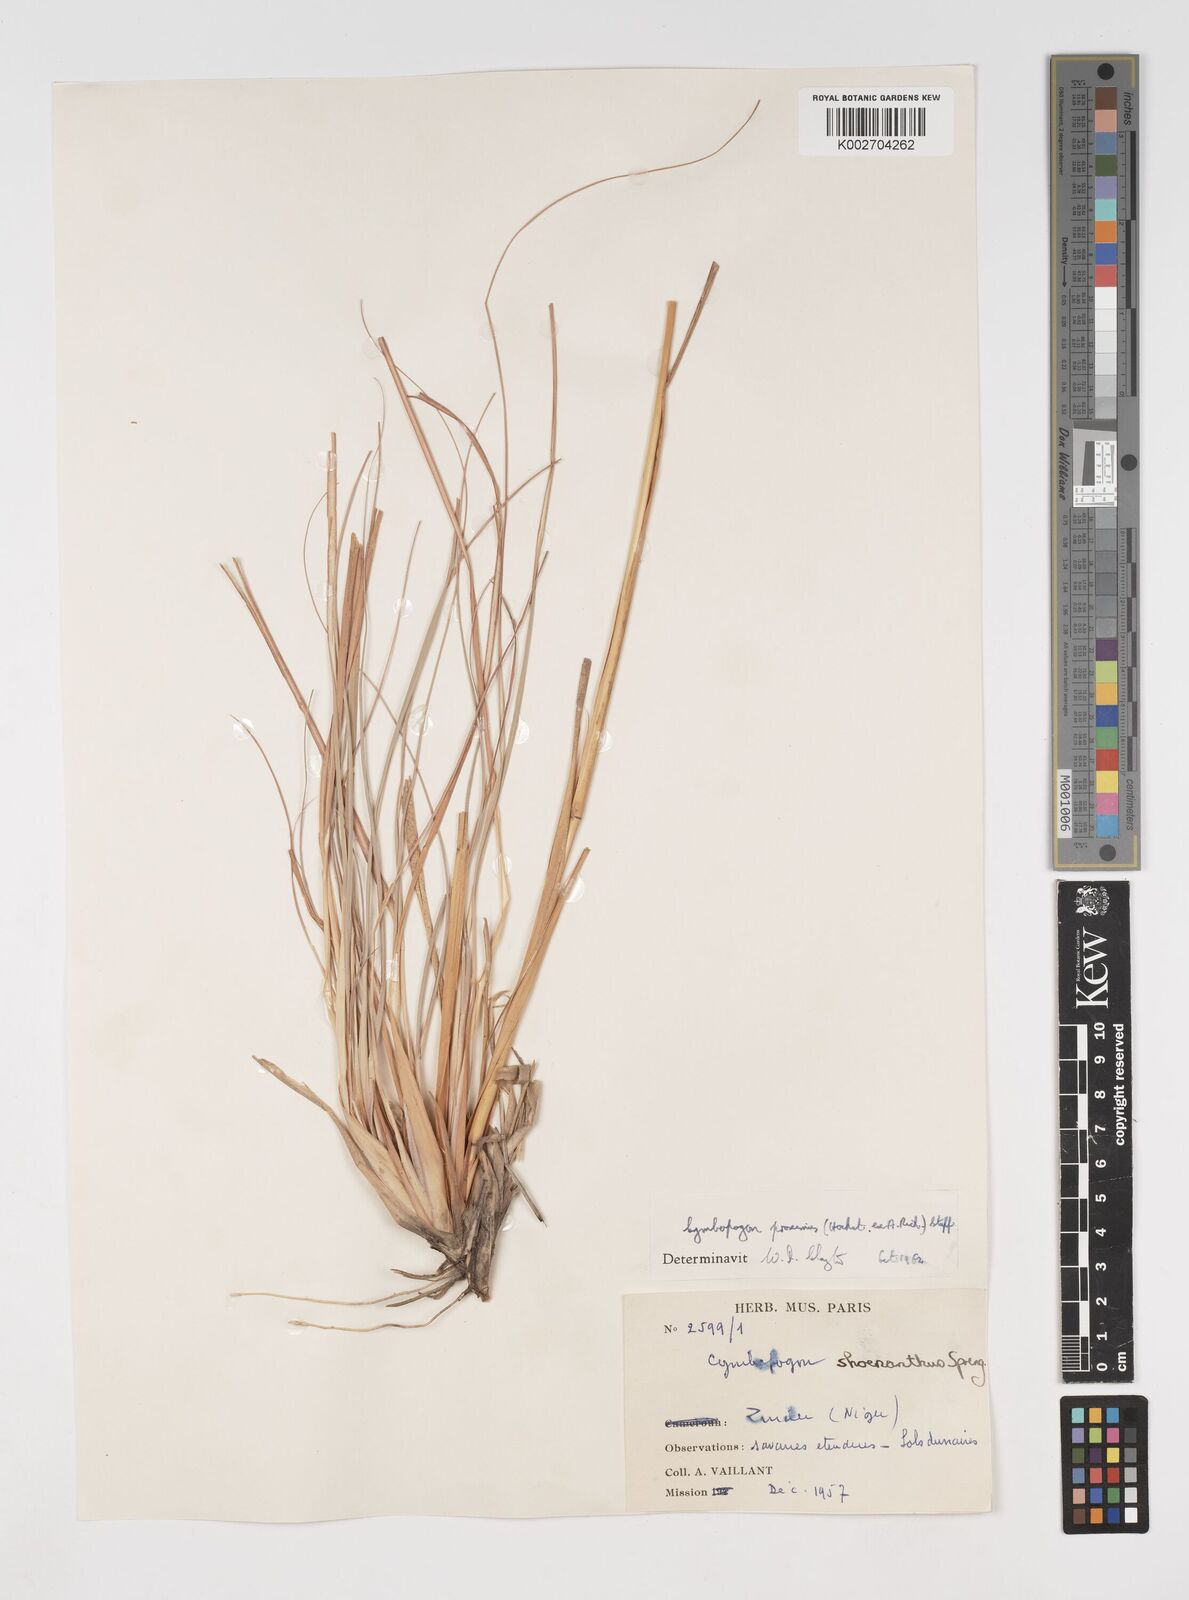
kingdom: Plantae
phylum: Tracheophyta
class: Liliopsida
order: Poales
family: Poaceae
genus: Cymbopogon
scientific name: Cymbopogon schoenanthus
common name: Geranium grass
